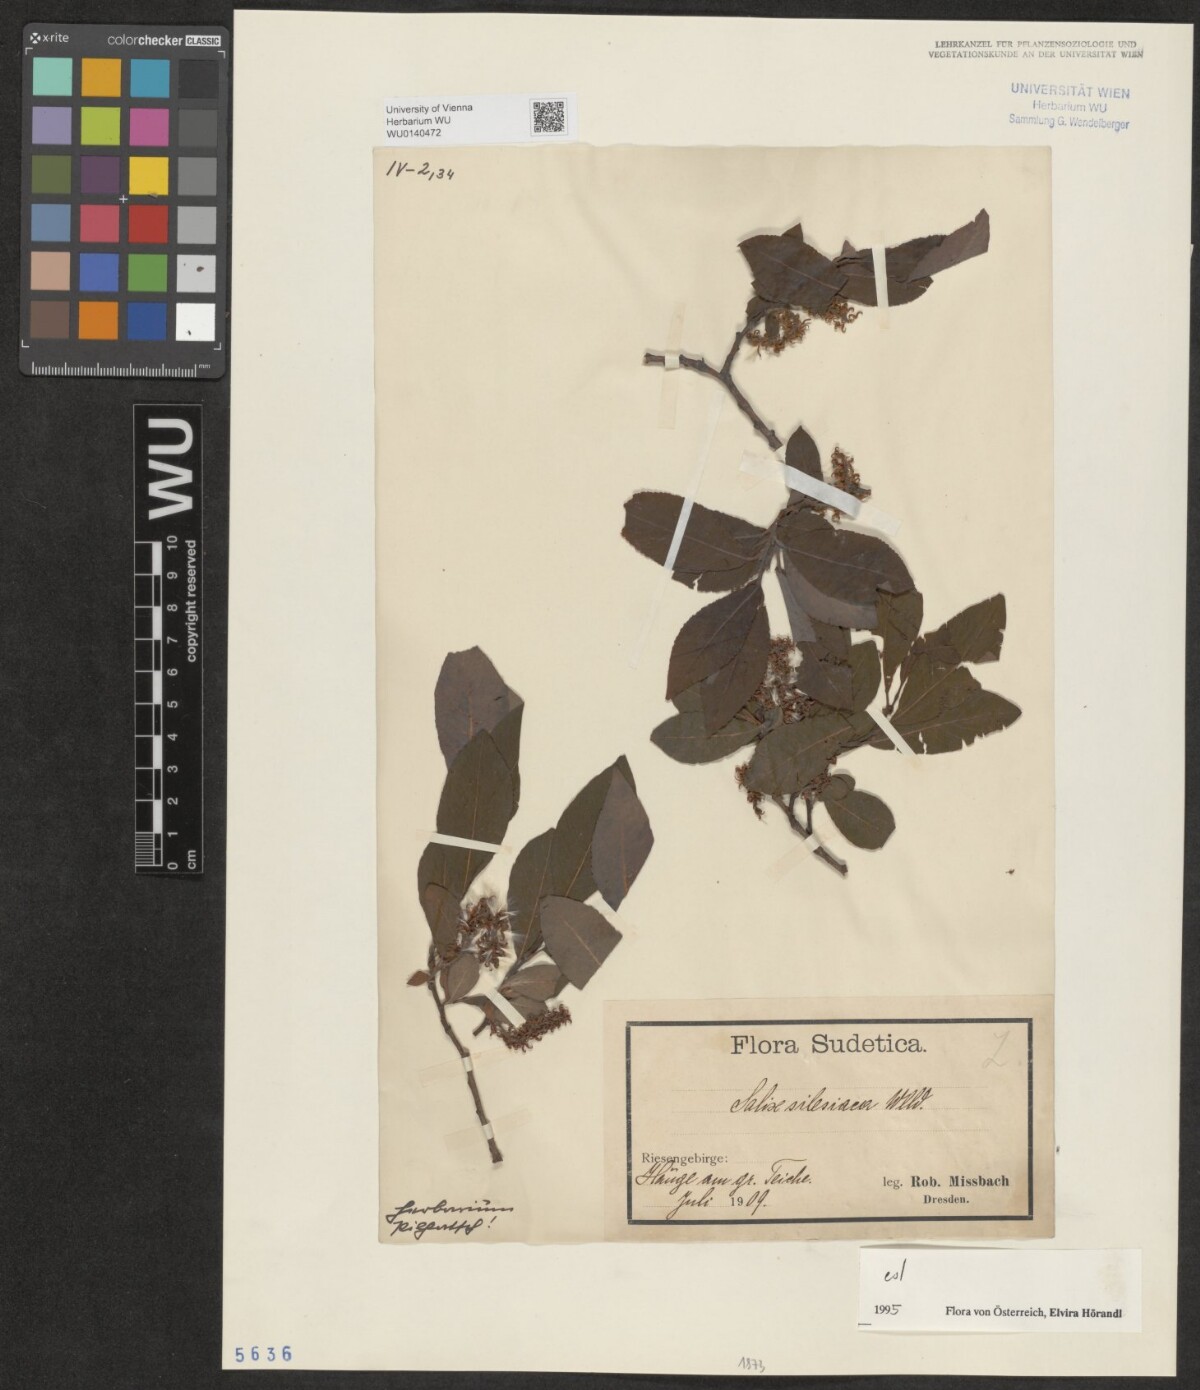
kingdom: Plantae
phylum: Tracheophyta
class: Magnoliopsida
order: Malpighiales
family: Salicaceae
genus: Salix
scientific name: Salix silesiaca
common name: Silesian willow
